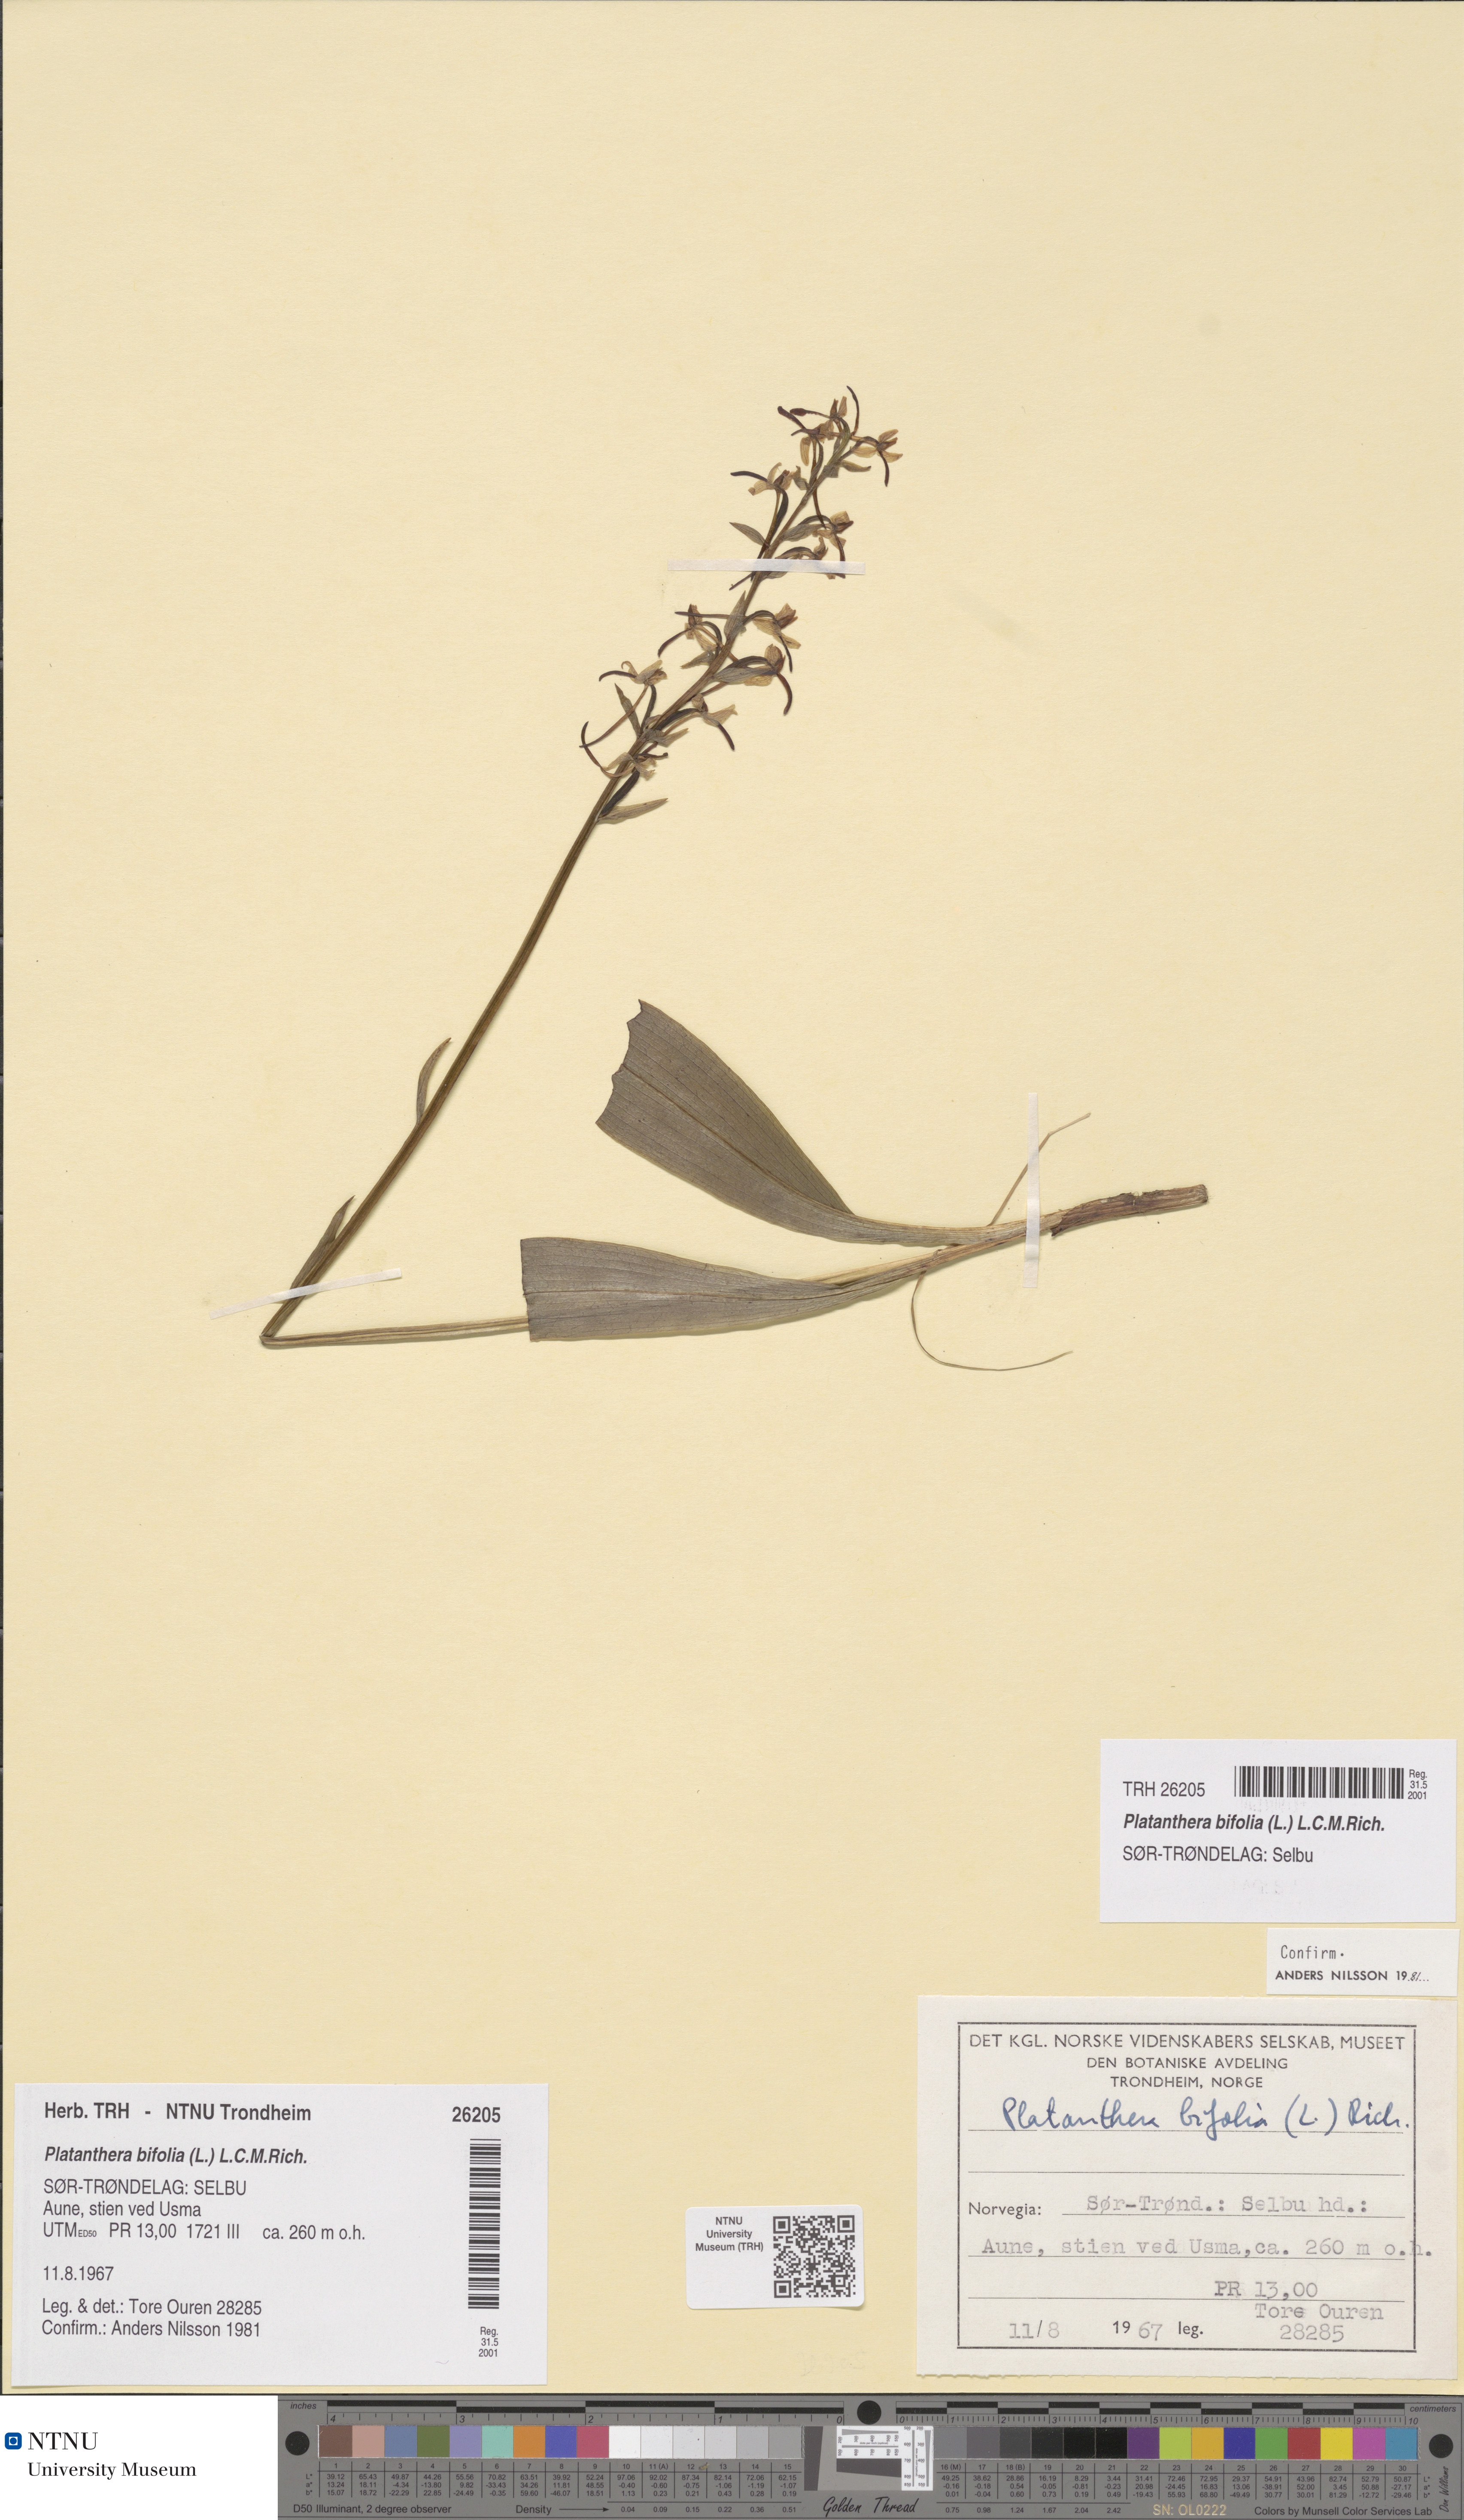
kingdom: Plantae
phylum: Tracheophyta
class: Liliopsida
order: Asparagales
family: Orchidaceae
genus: Platanthera
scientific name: Platanthera bifolia
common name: Lesser butterfly-orchid
